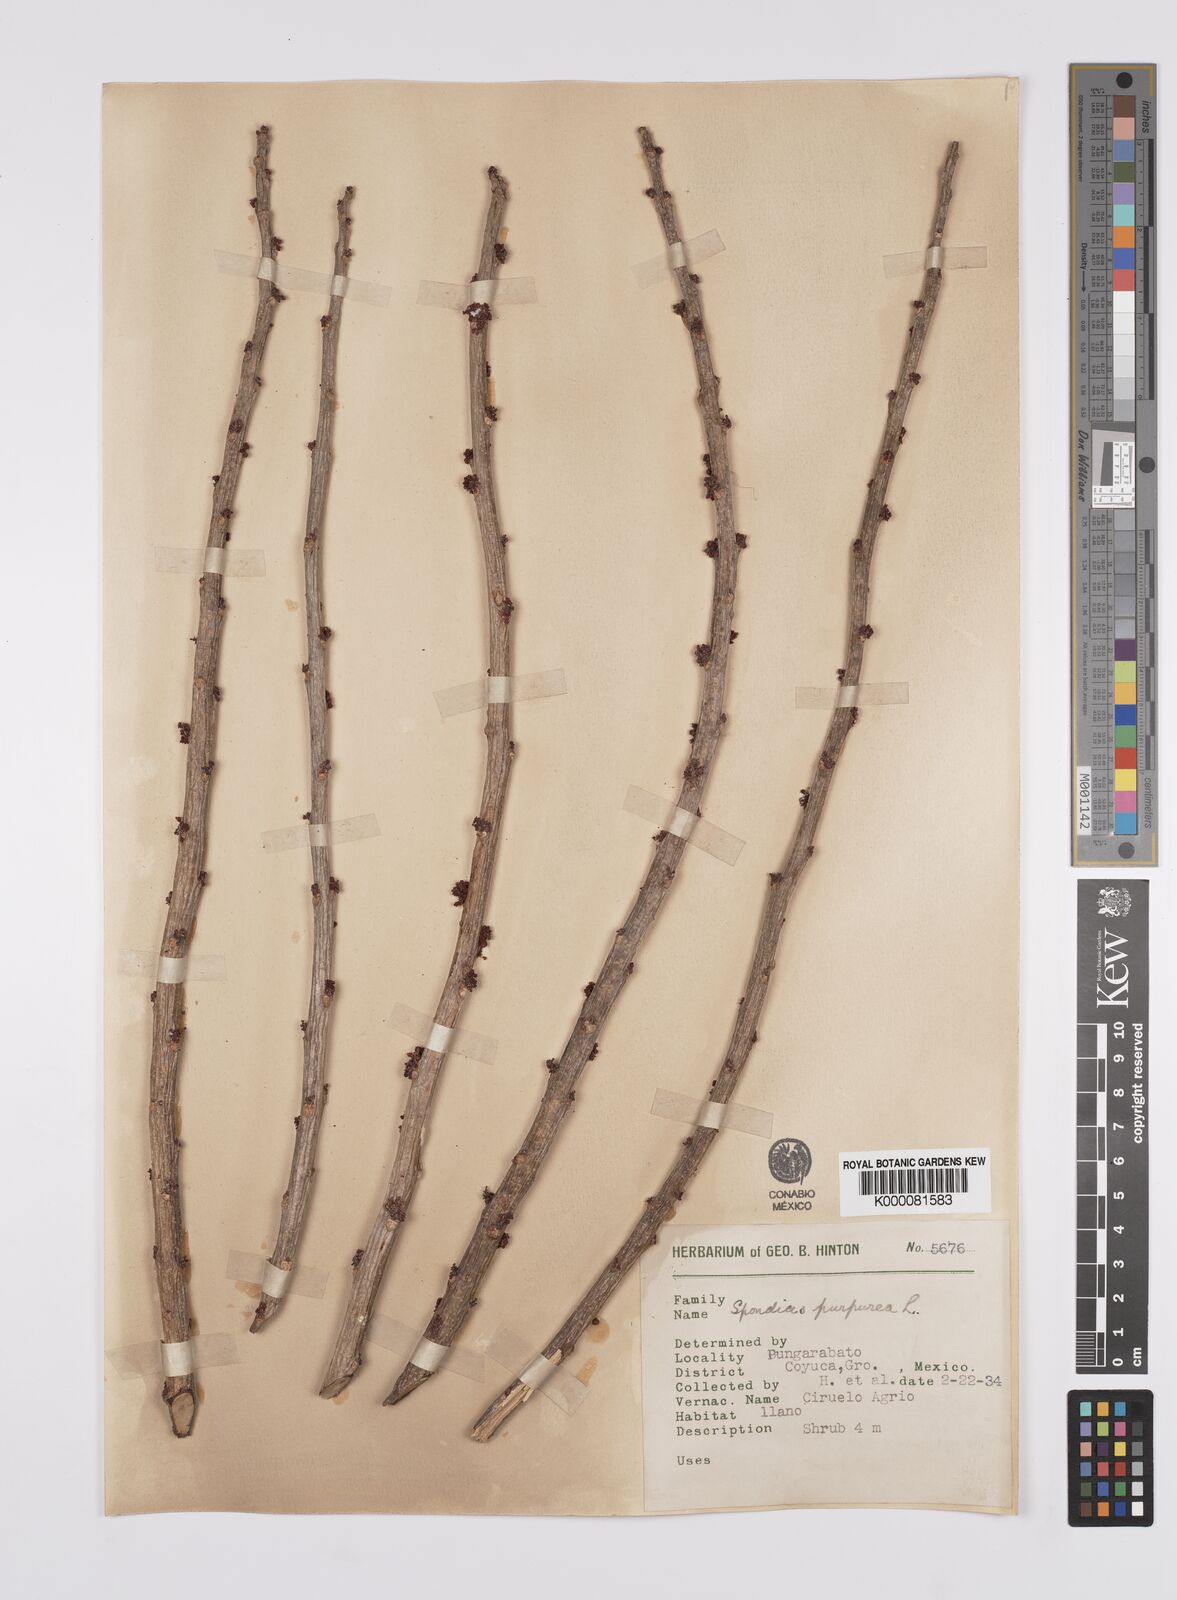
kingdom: Plantae
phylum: Tracheophyta
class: Magnoliopsida
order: Sapindales
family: Anacardiaceae
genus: Spondias
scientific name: Spondias purpurea
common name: Purple mombin
